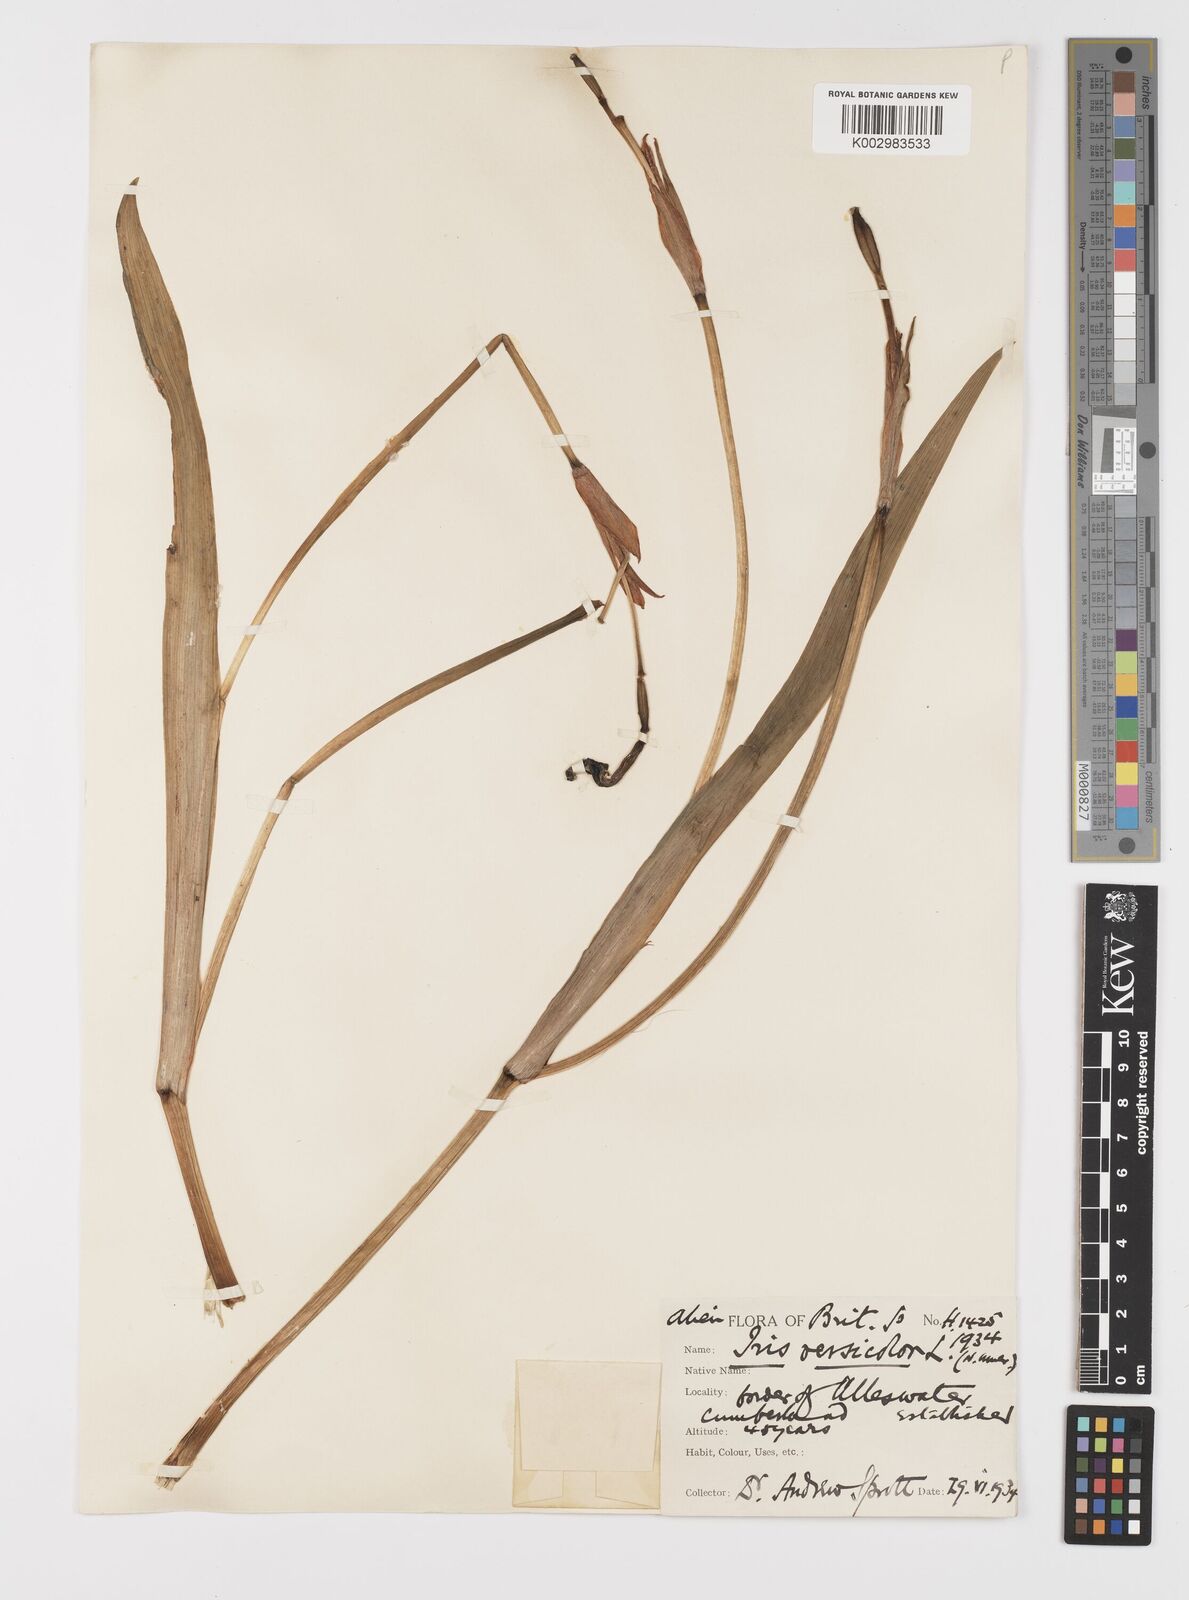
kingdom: Plantae
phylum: Tracheophyta
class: Liliopsida
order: Asparagales
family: Iridaceae
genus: Iris
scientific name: Iris versicolor
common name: Purple iris
